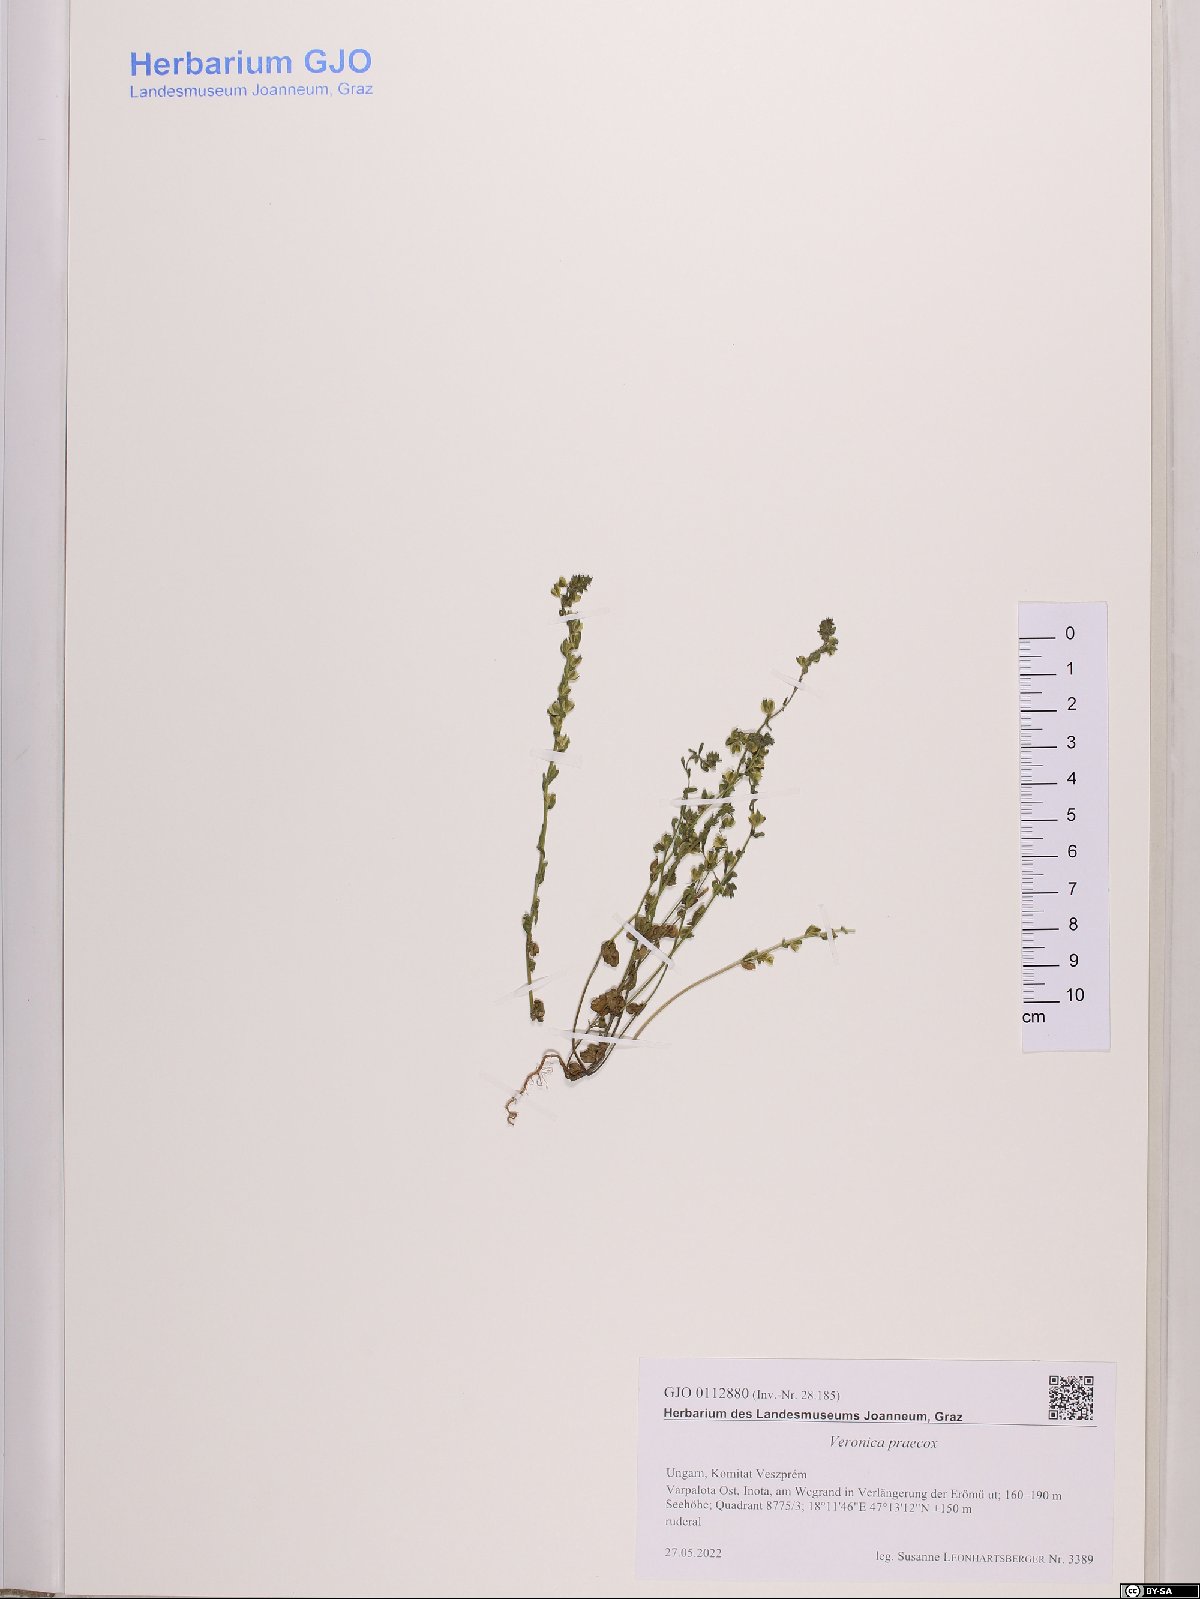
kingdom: Plantae
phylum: Tracheophyta
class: Magnoliopsida
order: Lamiales
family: Plantaginaceae
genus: Veronica
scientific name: Veronica praecox
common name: Breckland speedwell
